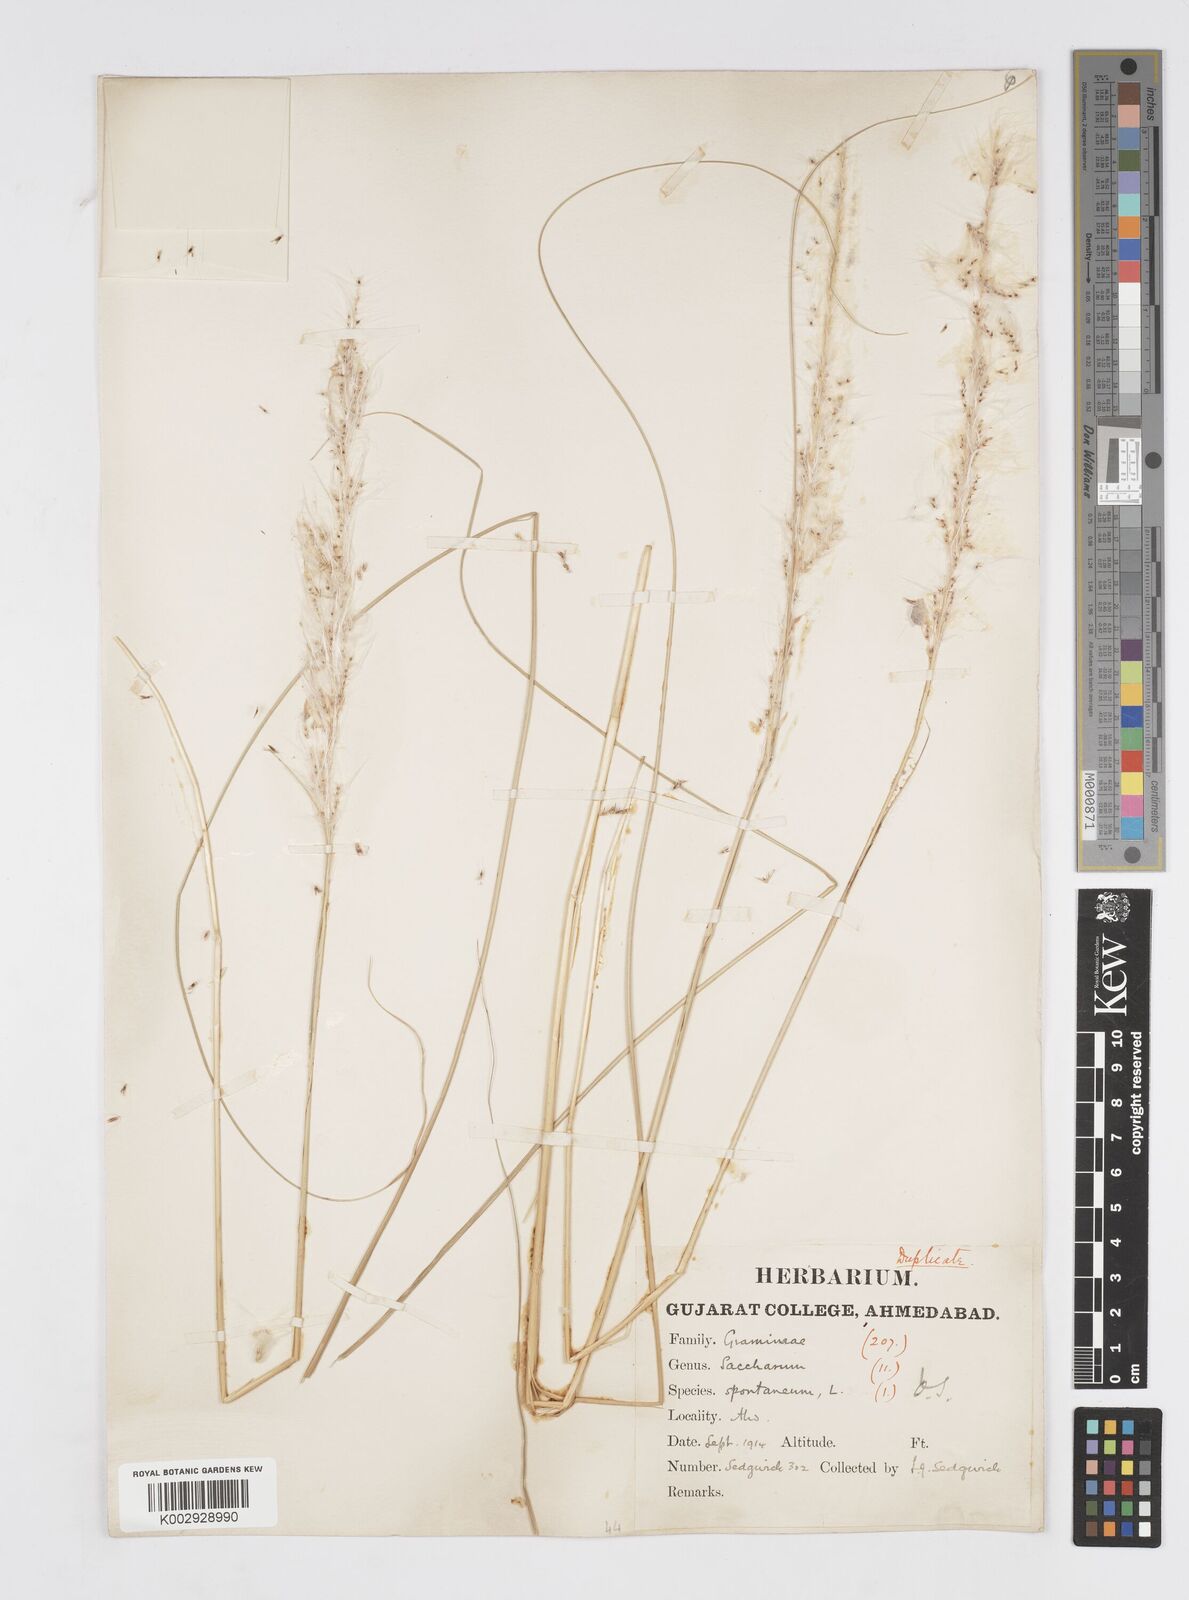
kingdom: Plantae
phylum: Tracheophyta
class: Liliopsida
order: Poales
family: Poaceae
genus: Saccharum
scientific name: Saccharum spontaneum
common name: Wild sugarcane
